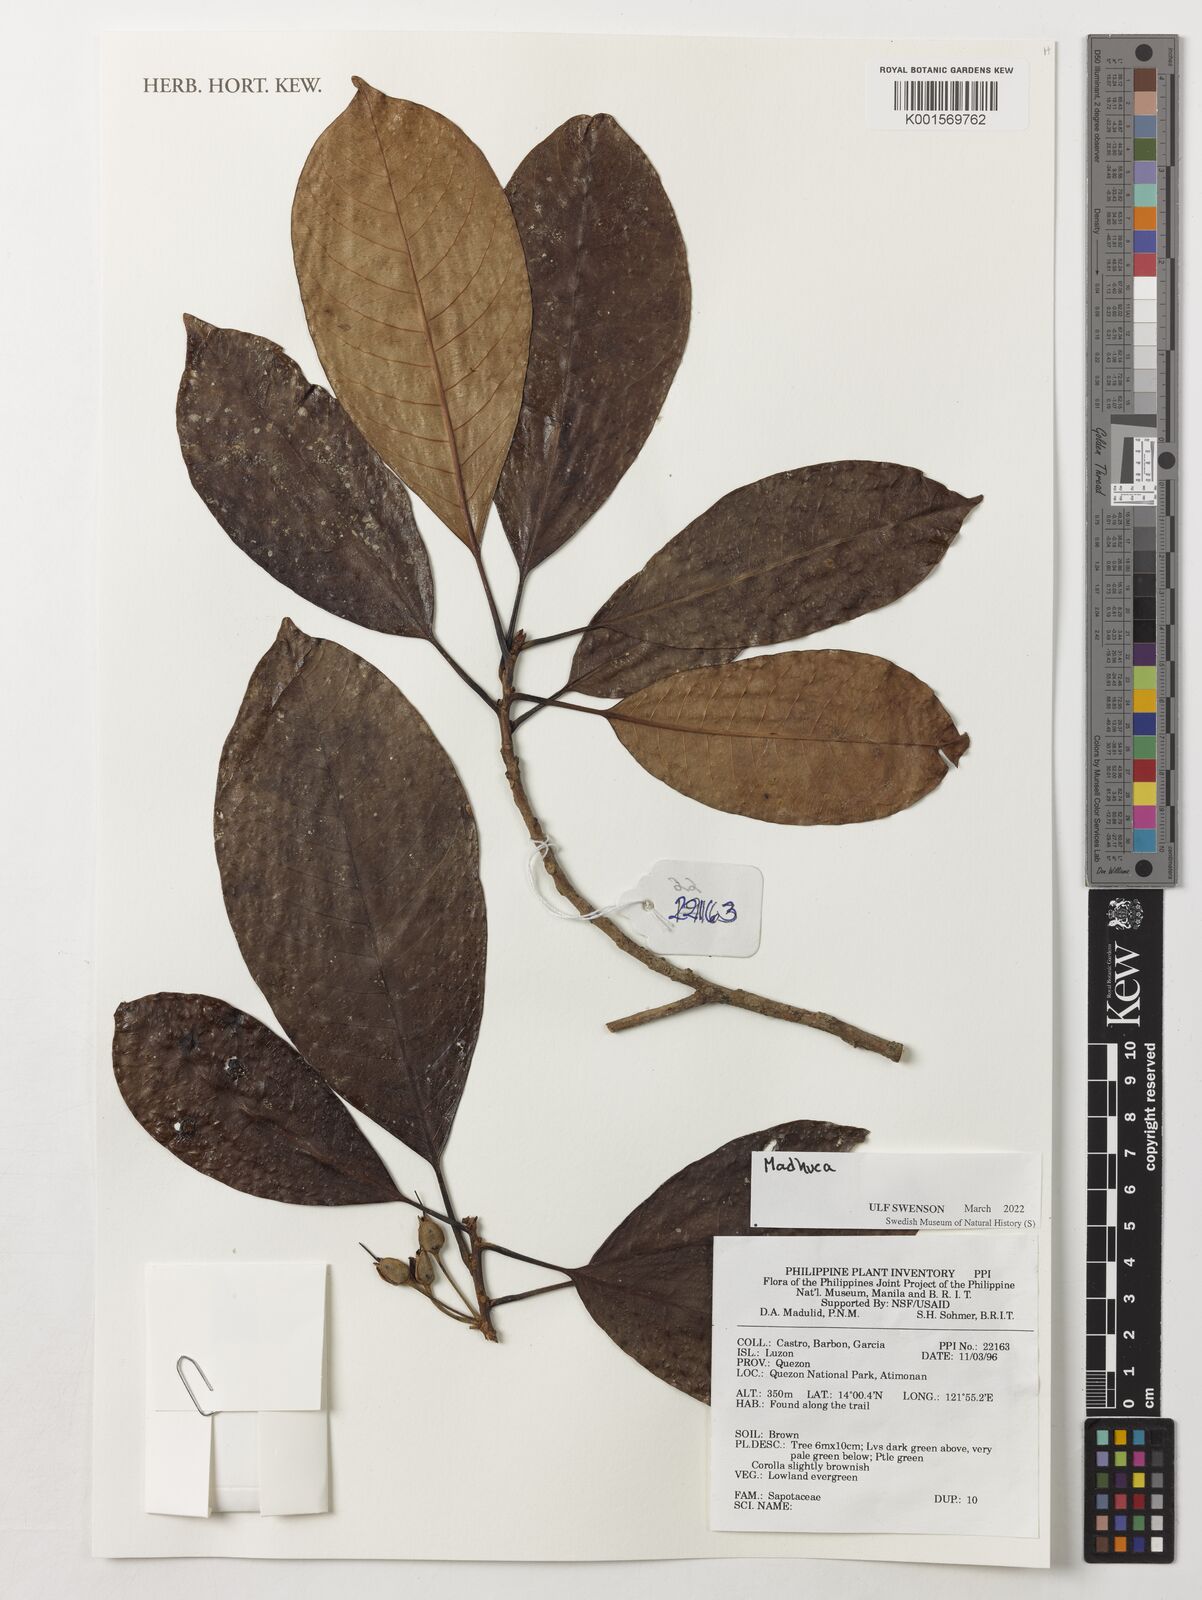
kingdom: Plantae
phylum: Tracheophyta
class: Magnoliopsida
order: Ericales
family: Sapotaceae
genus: Madhuca
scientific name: Madhuca
